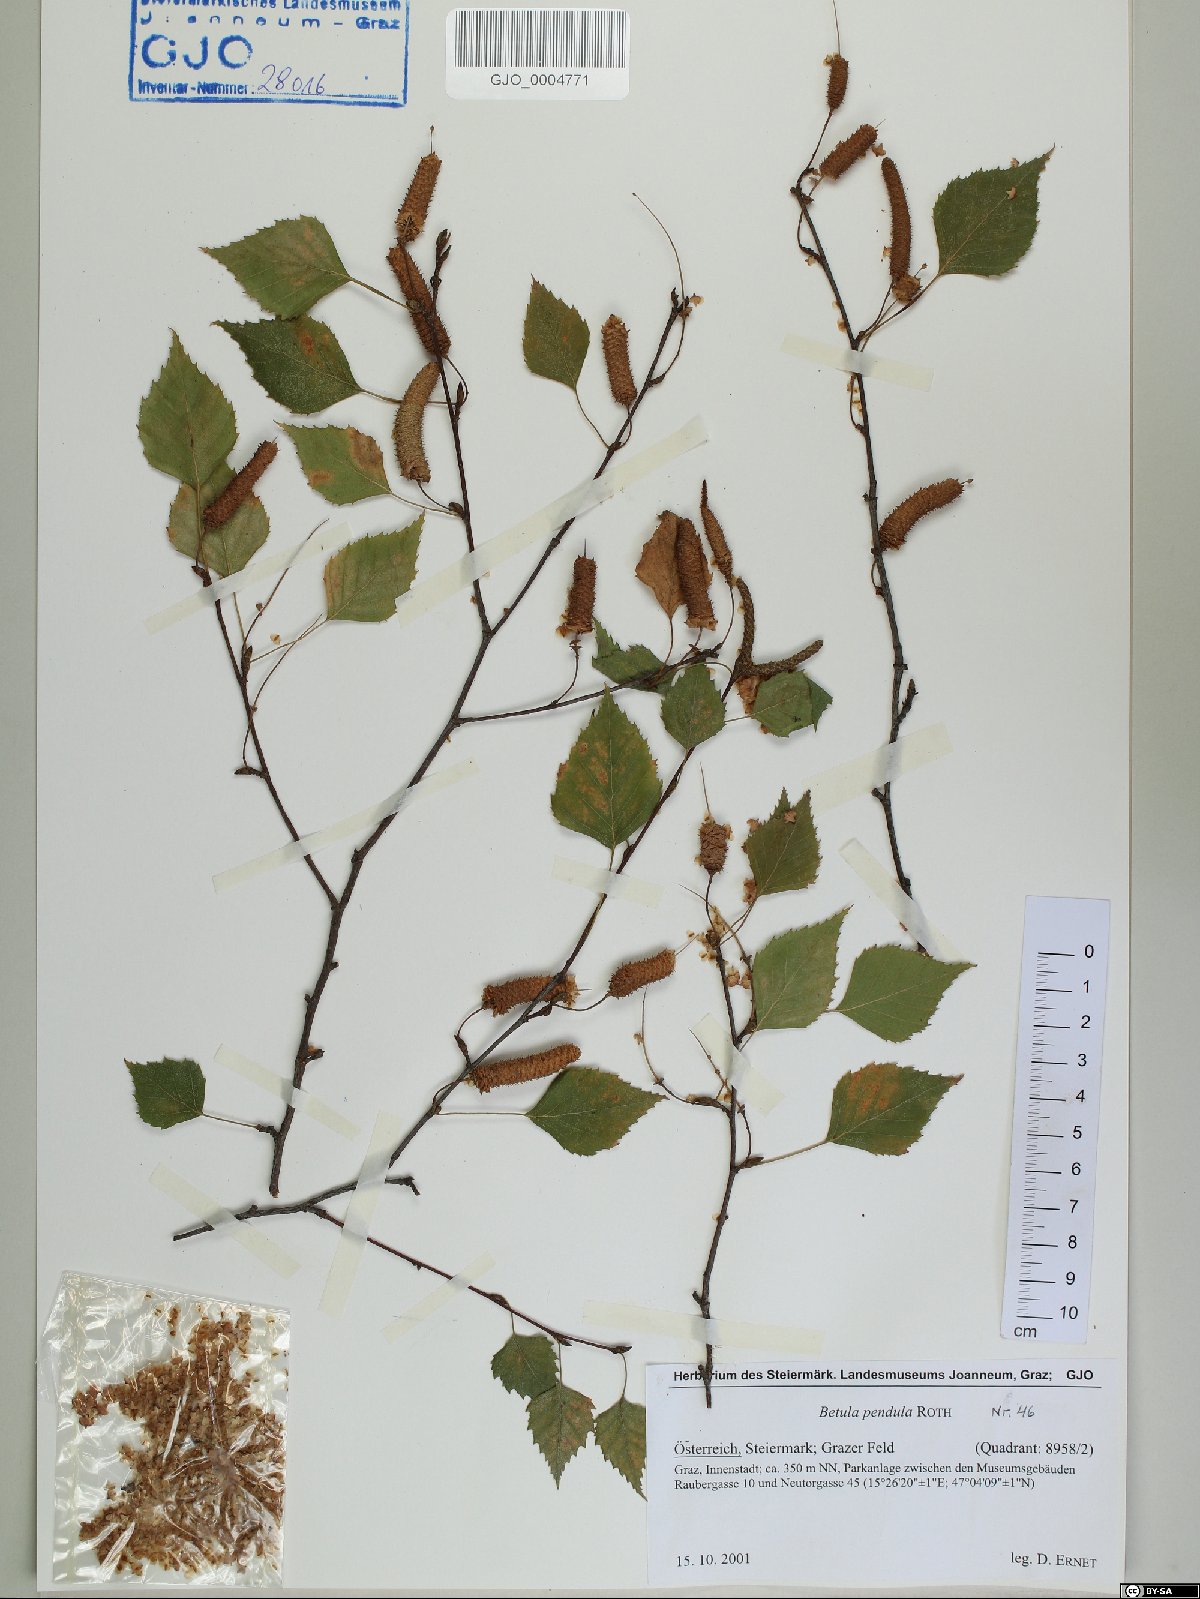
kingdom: Plantae
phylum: Tracheophyta
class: Magnoliopsida
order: Fagales
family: Betulaceae
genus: Betula
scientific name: Betula pendula
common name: Silver birch
